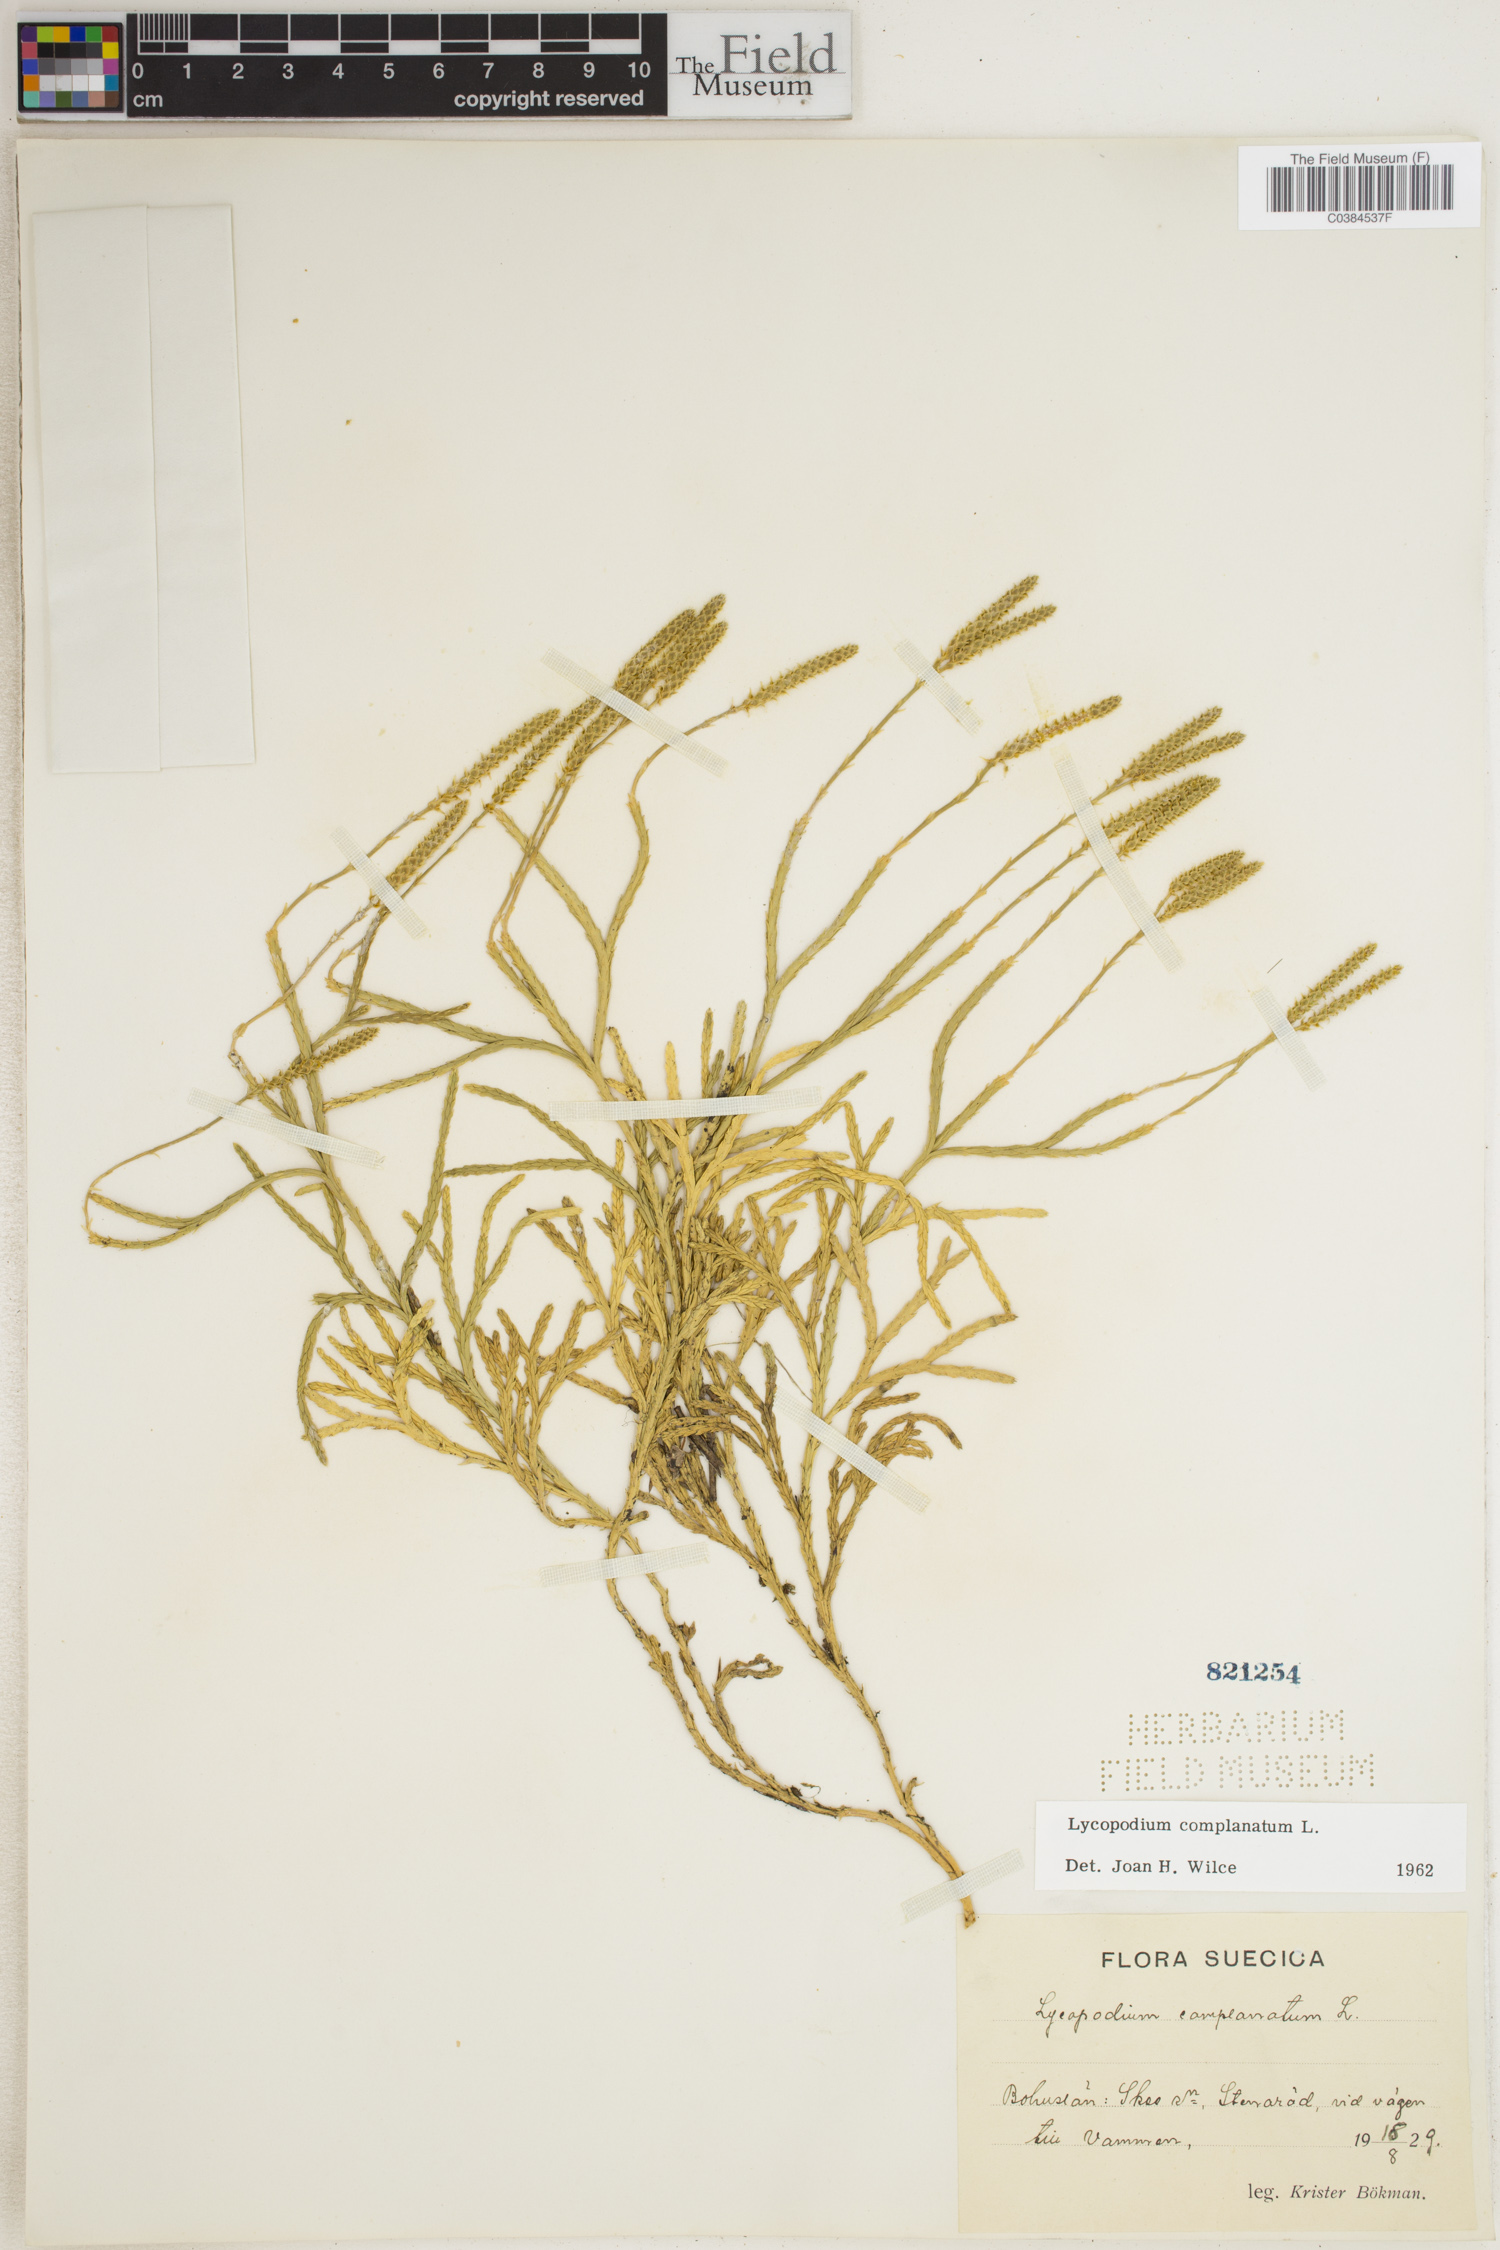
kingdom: Plantae
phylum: Tracheophyta
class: Lycopodiopsida
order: Lycopodiales
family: Lycopodiaceae
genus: Diphasiastrum
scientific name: Diphasiastrum complanatum
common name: Northern running-pine
